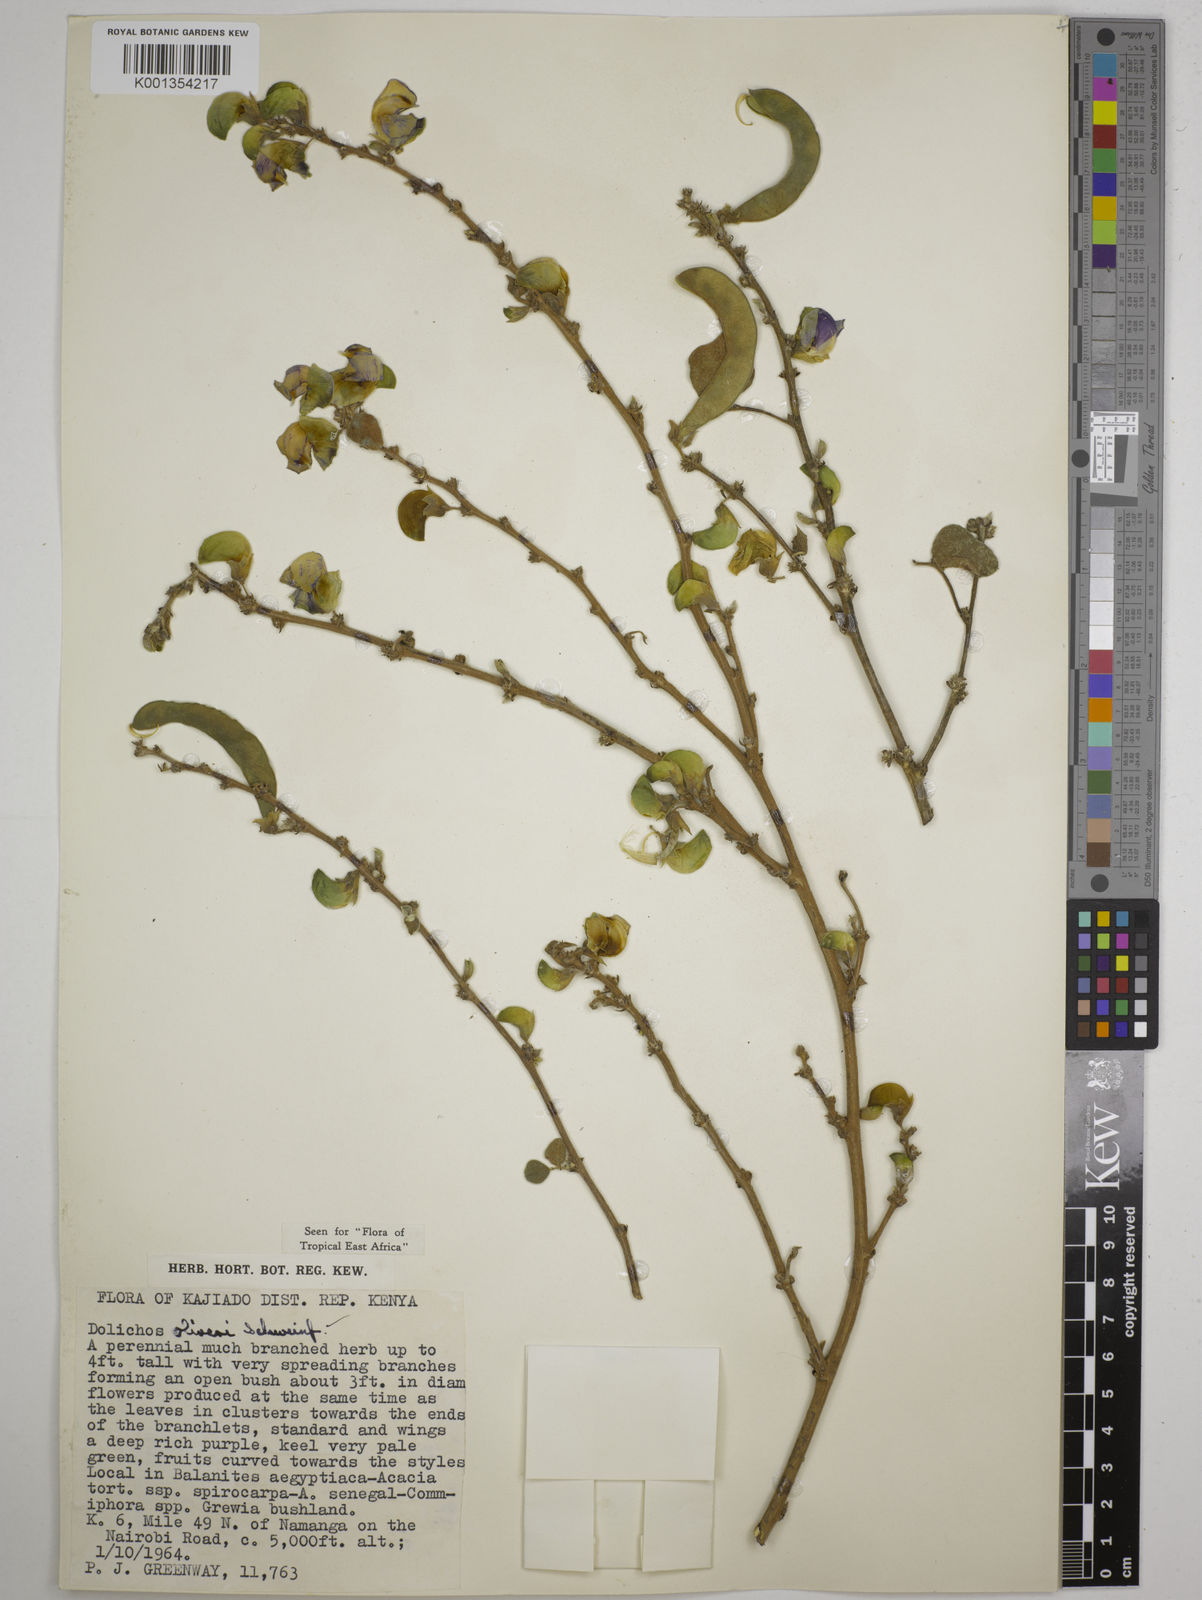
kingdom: Plantae
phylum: Tracheophyta
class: Magnoliopsida
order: Fabales
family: Fabaceae
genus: Dolichos
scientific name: Dolichos oliveri
